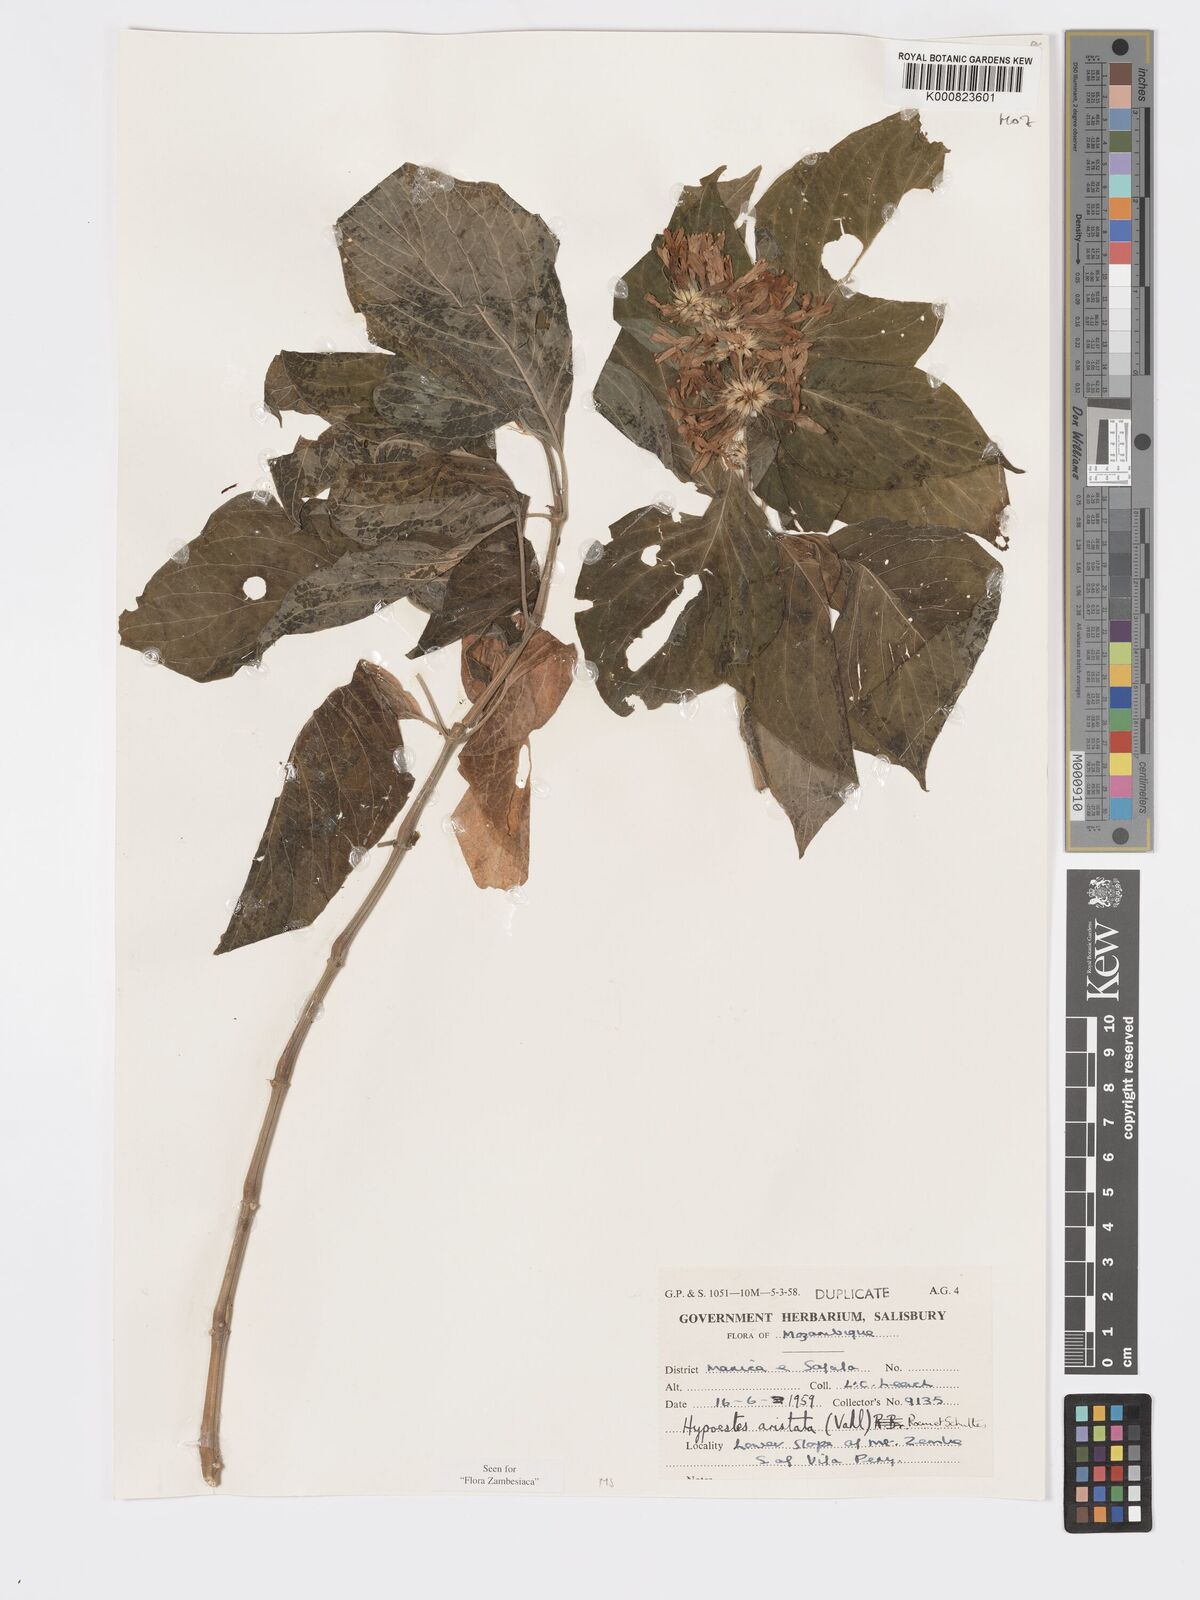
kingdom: Plantae
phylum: Tracheophyta
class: Magnoliopsida
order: Lamiales
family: Acanthaceae
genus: Hypoestes
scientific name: Hypoestes aristata
